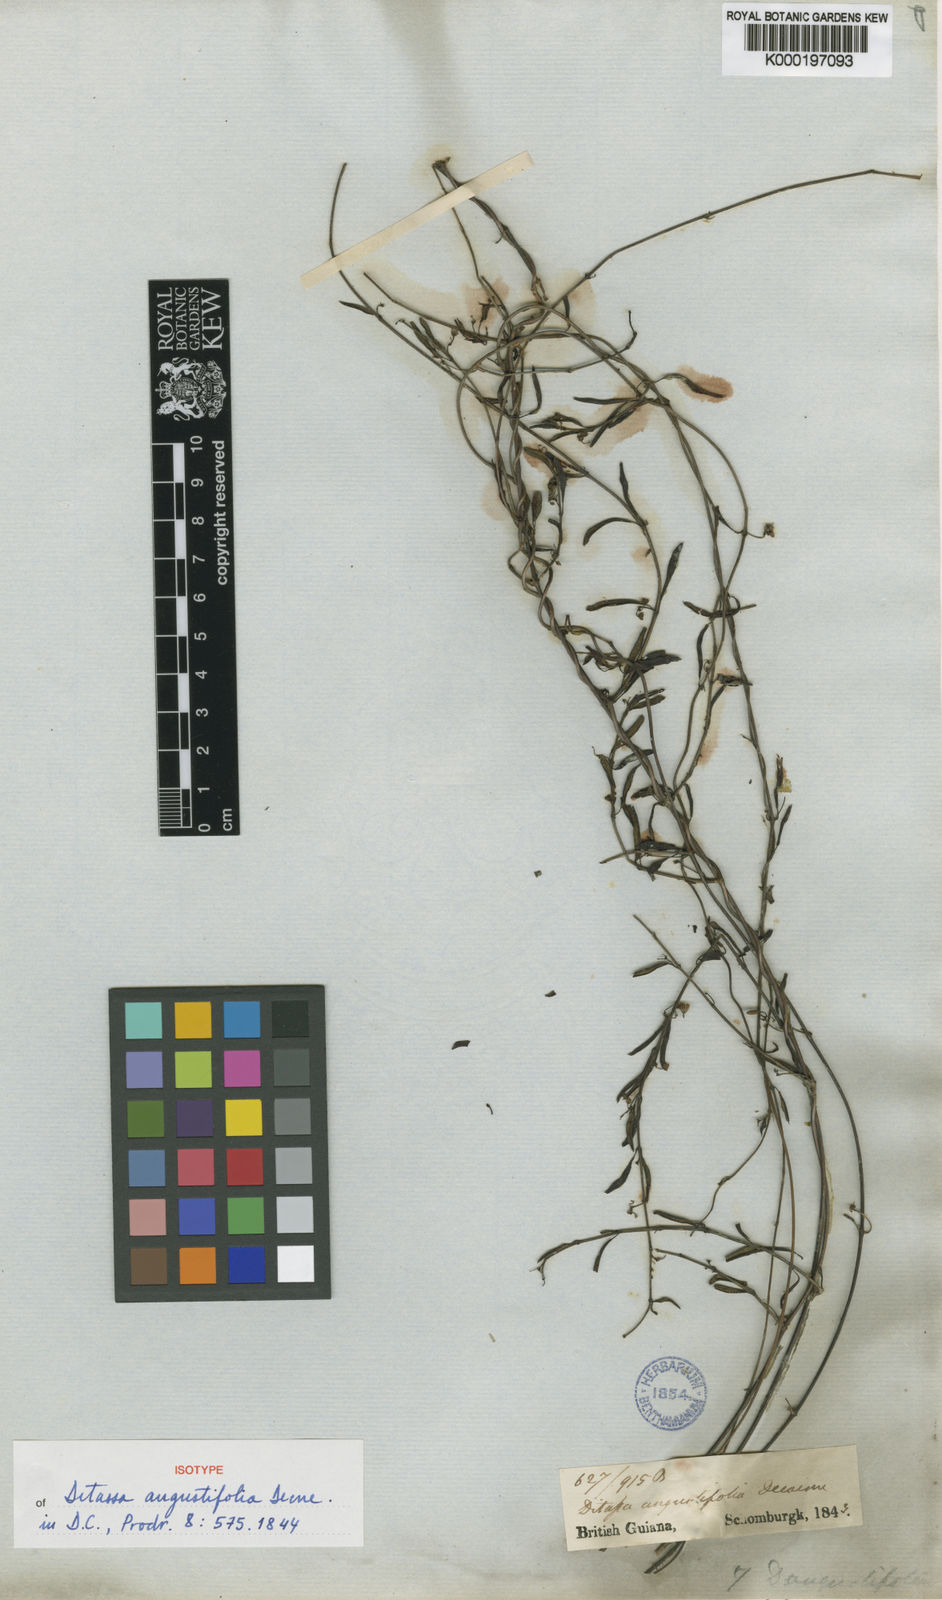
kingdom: Plantae
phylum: Tracheophyta
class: Magnoliopsida
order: Gentianales
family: Apocynaceae
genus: Ditassa
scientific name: Ditassa angustifolia
